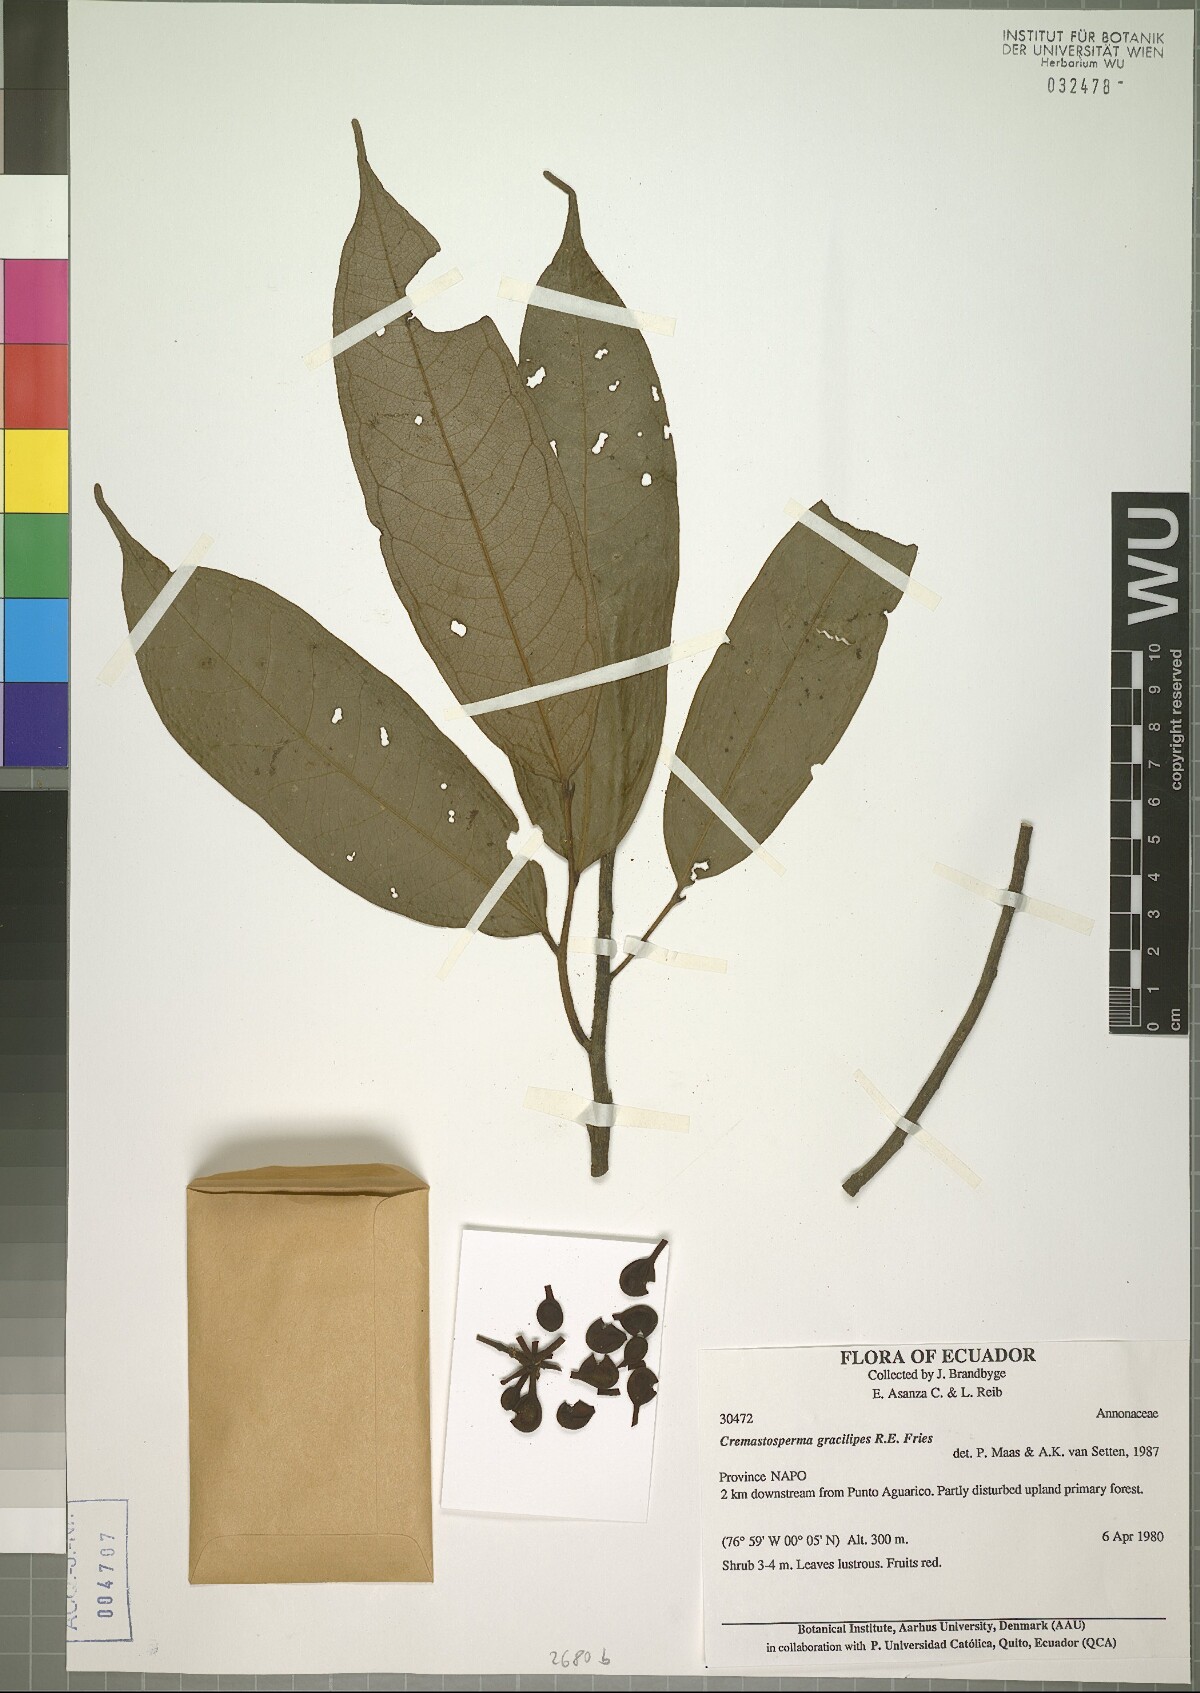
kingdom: Plantae
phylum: Tracheophyta
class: Magnoliopsida
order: Magnoliales
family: Annonaceae
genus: Cremastosperma
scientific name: Cremastosperma gracilipes
